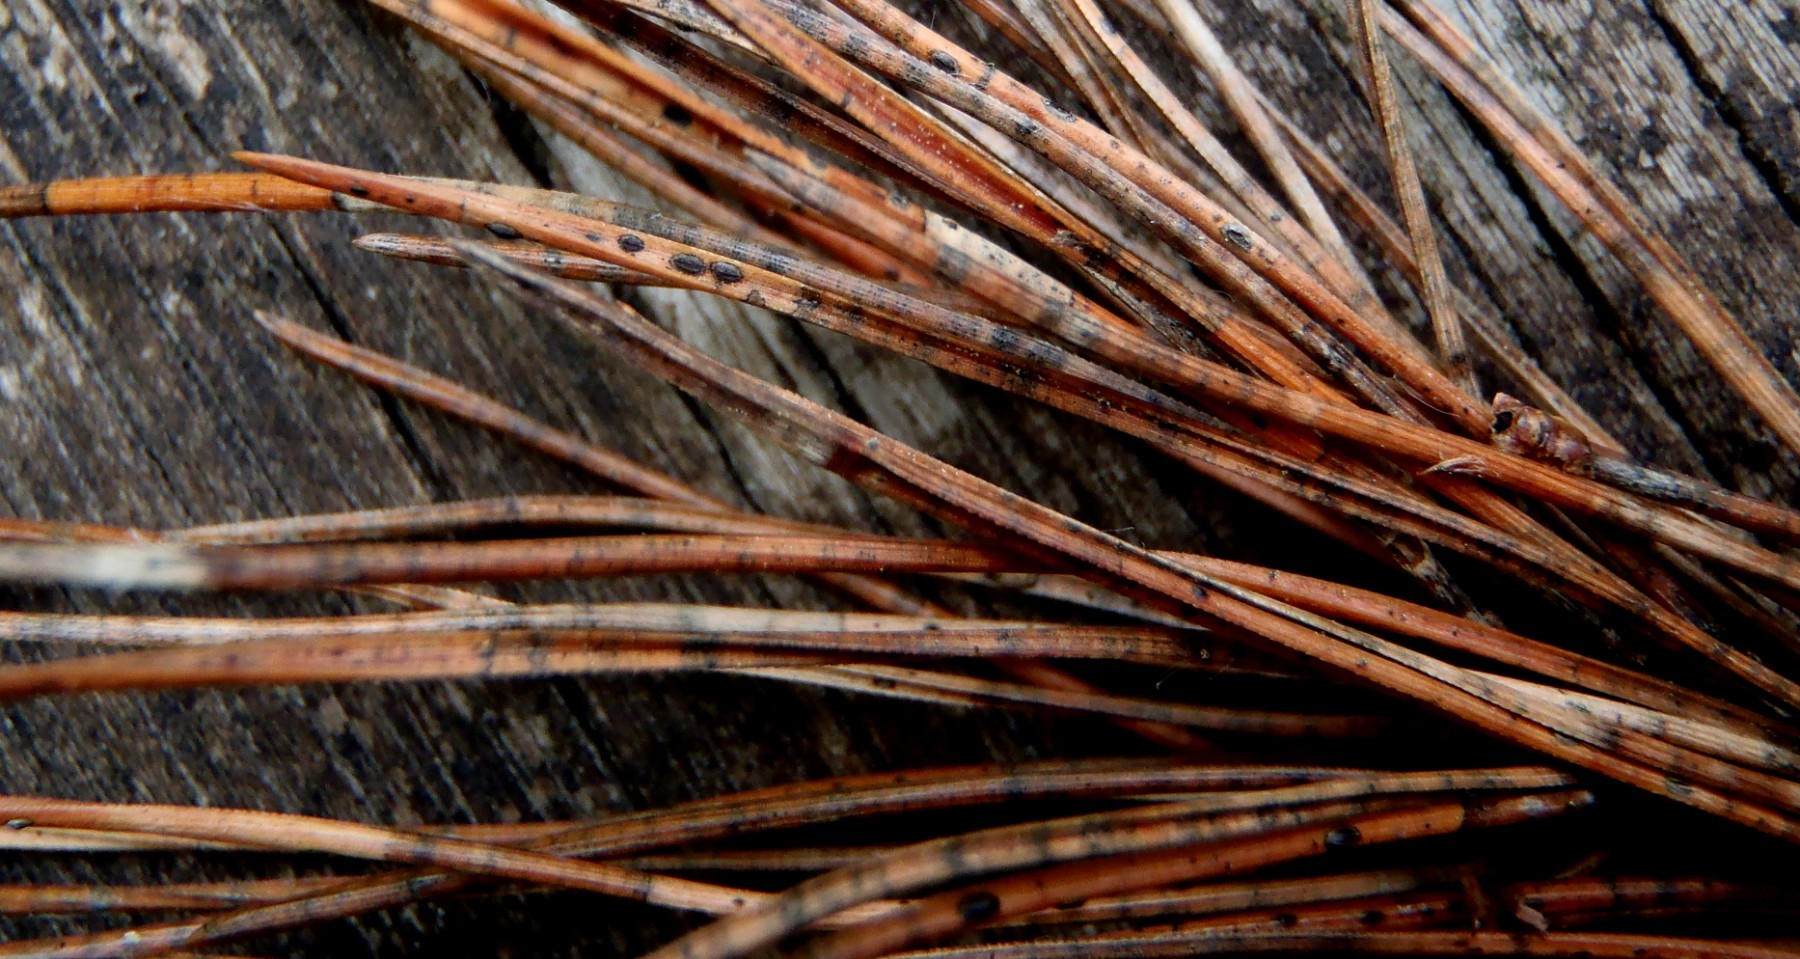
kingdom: Fungi
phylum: Ascomycota
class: Leotiomycetes
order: Rhytismatales
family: Rhytismataceae
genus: Lophodermium
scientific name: Lophodermium pinastri
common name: fyrre-fureplet
